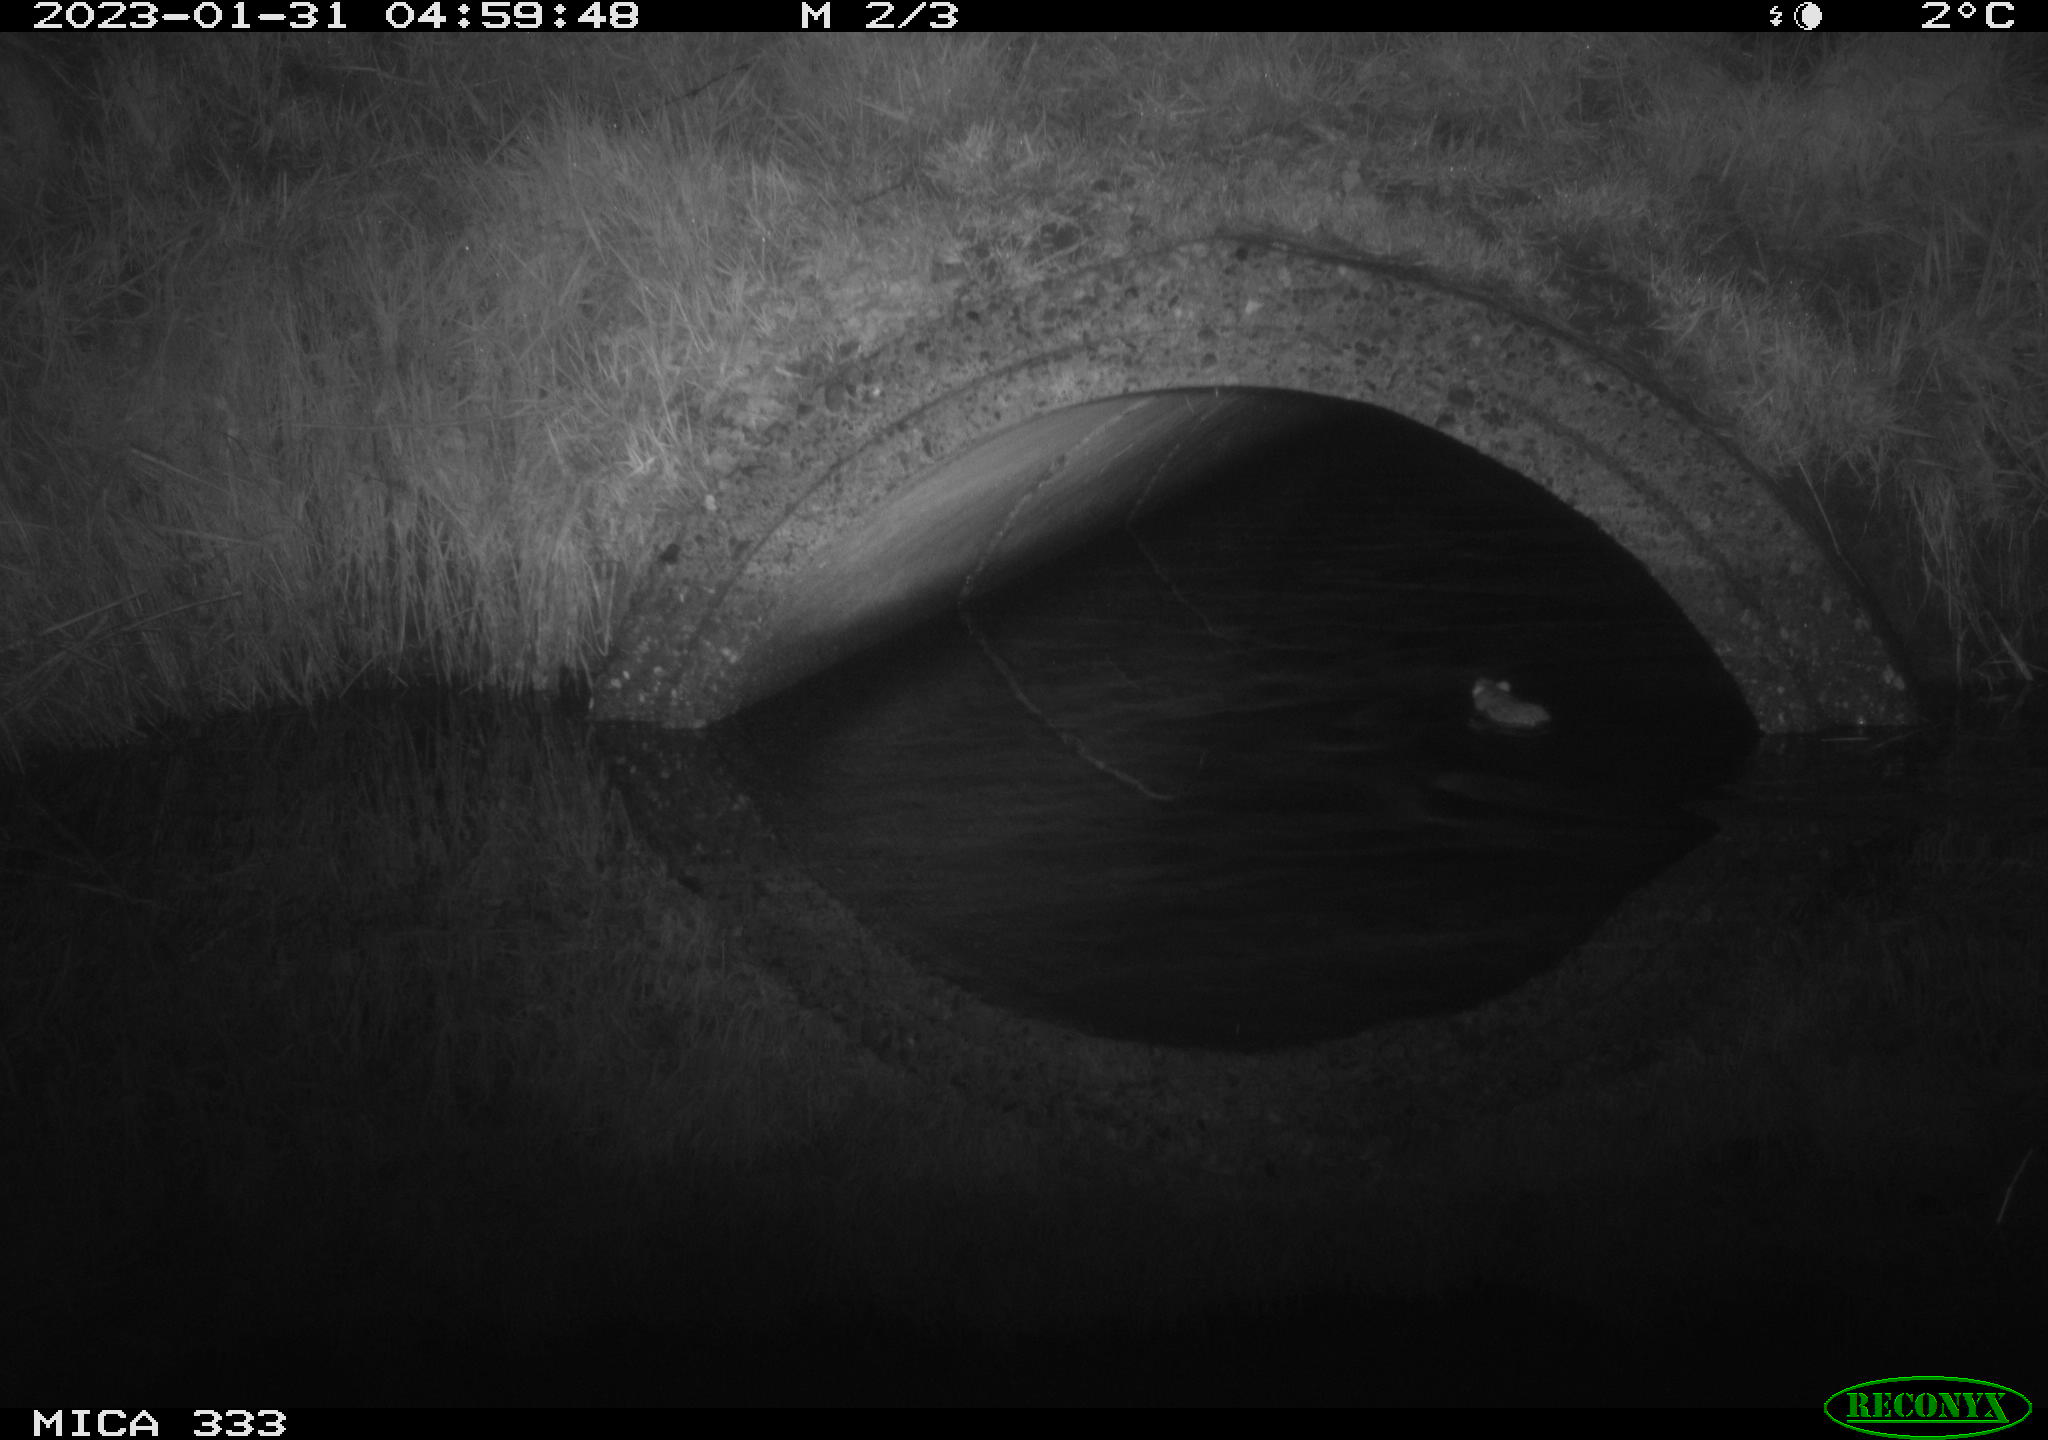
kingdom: Animalia
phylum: Chordata
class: Mammalia
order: Rodentia
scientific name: Rodentia
